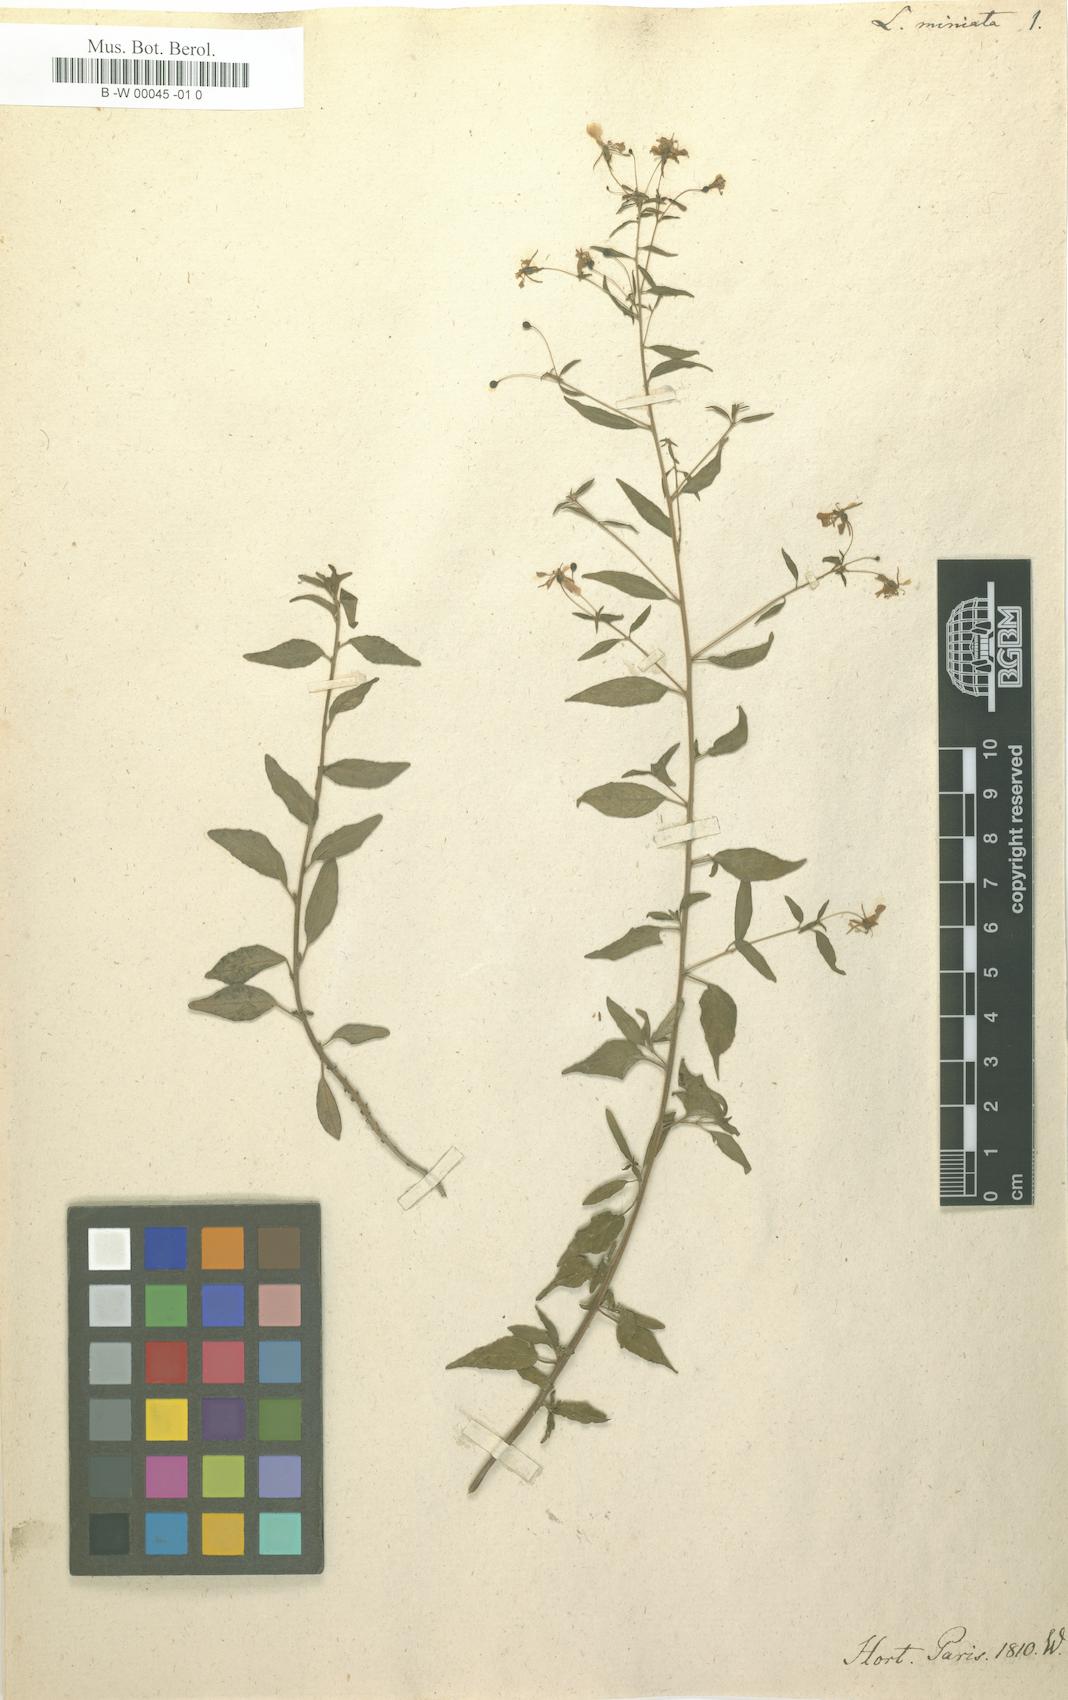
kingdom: Plantae
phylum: Tracheophyta
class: Magnoliopsida
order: Myrtales
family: Onagraceae
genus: Lopezia
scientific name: Lopezia miniata
